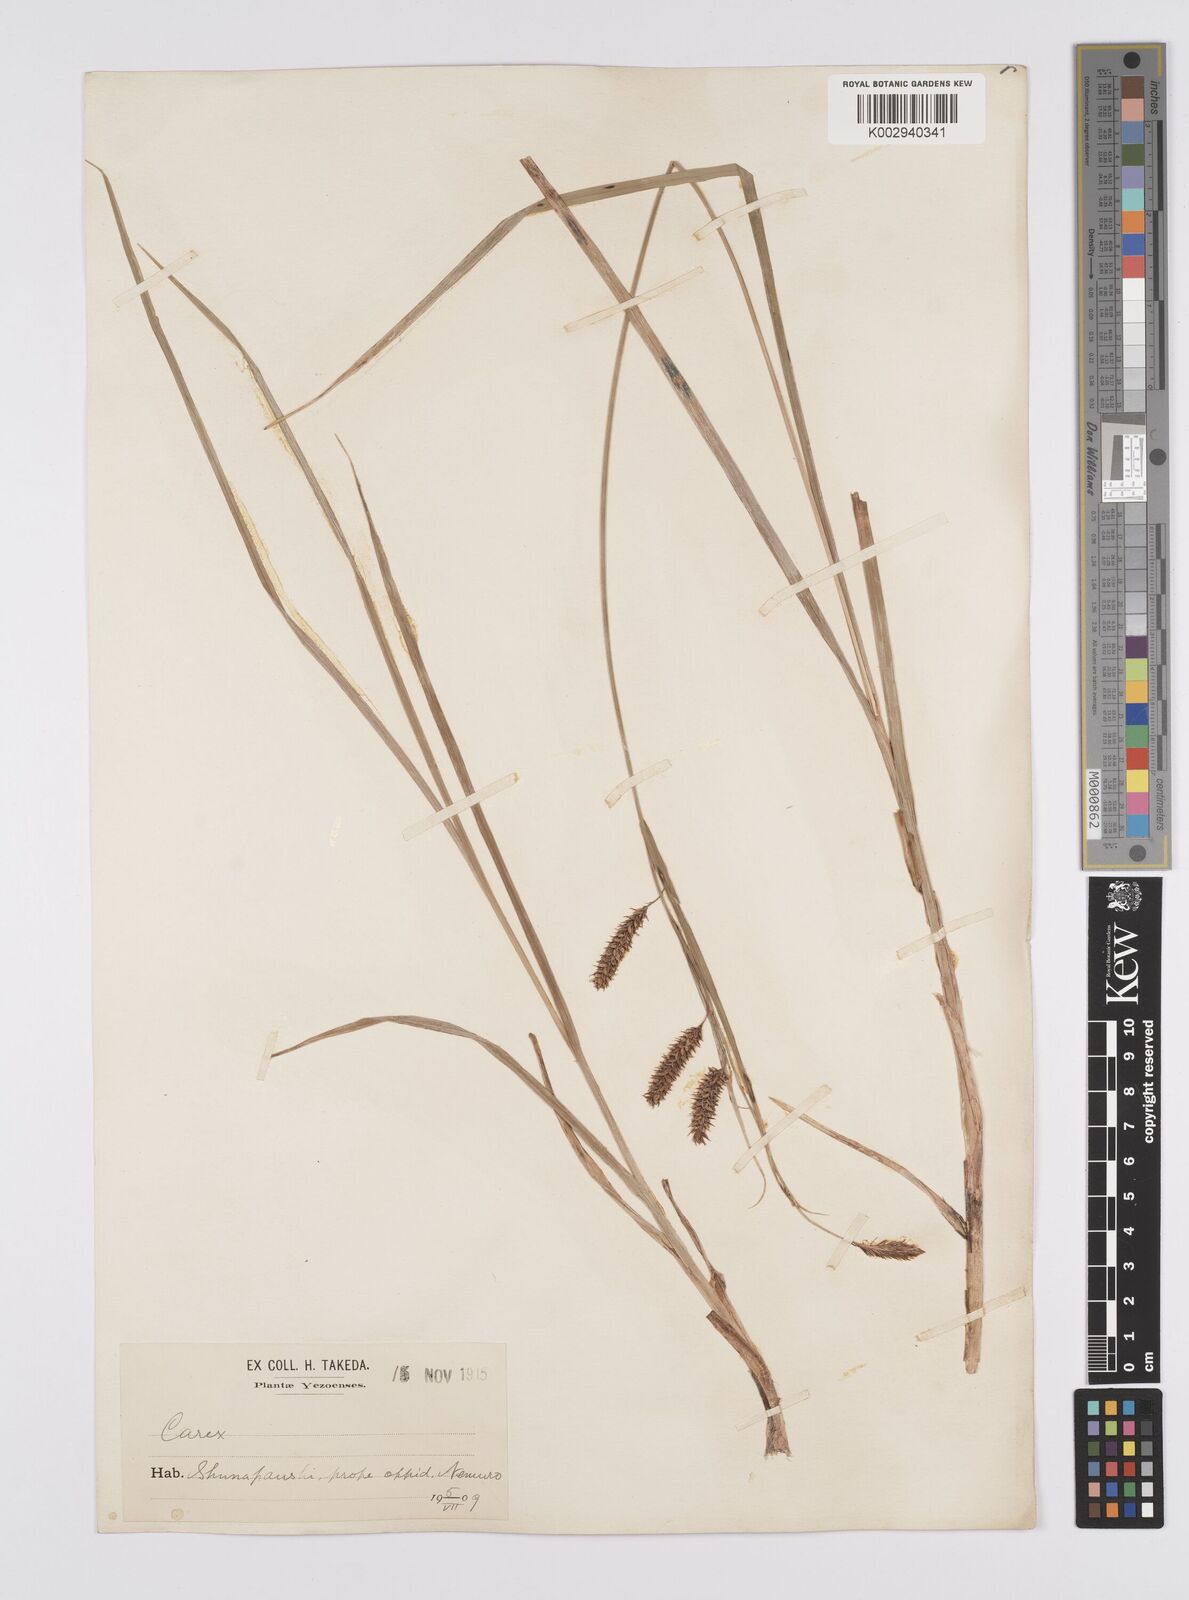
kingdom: Plantae
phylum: Tracheophyta
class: Liliopsida
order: Poales
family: Cyperaceae
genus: Carex
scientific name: Carex lyngbyei
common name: Lyngbye's sedge
